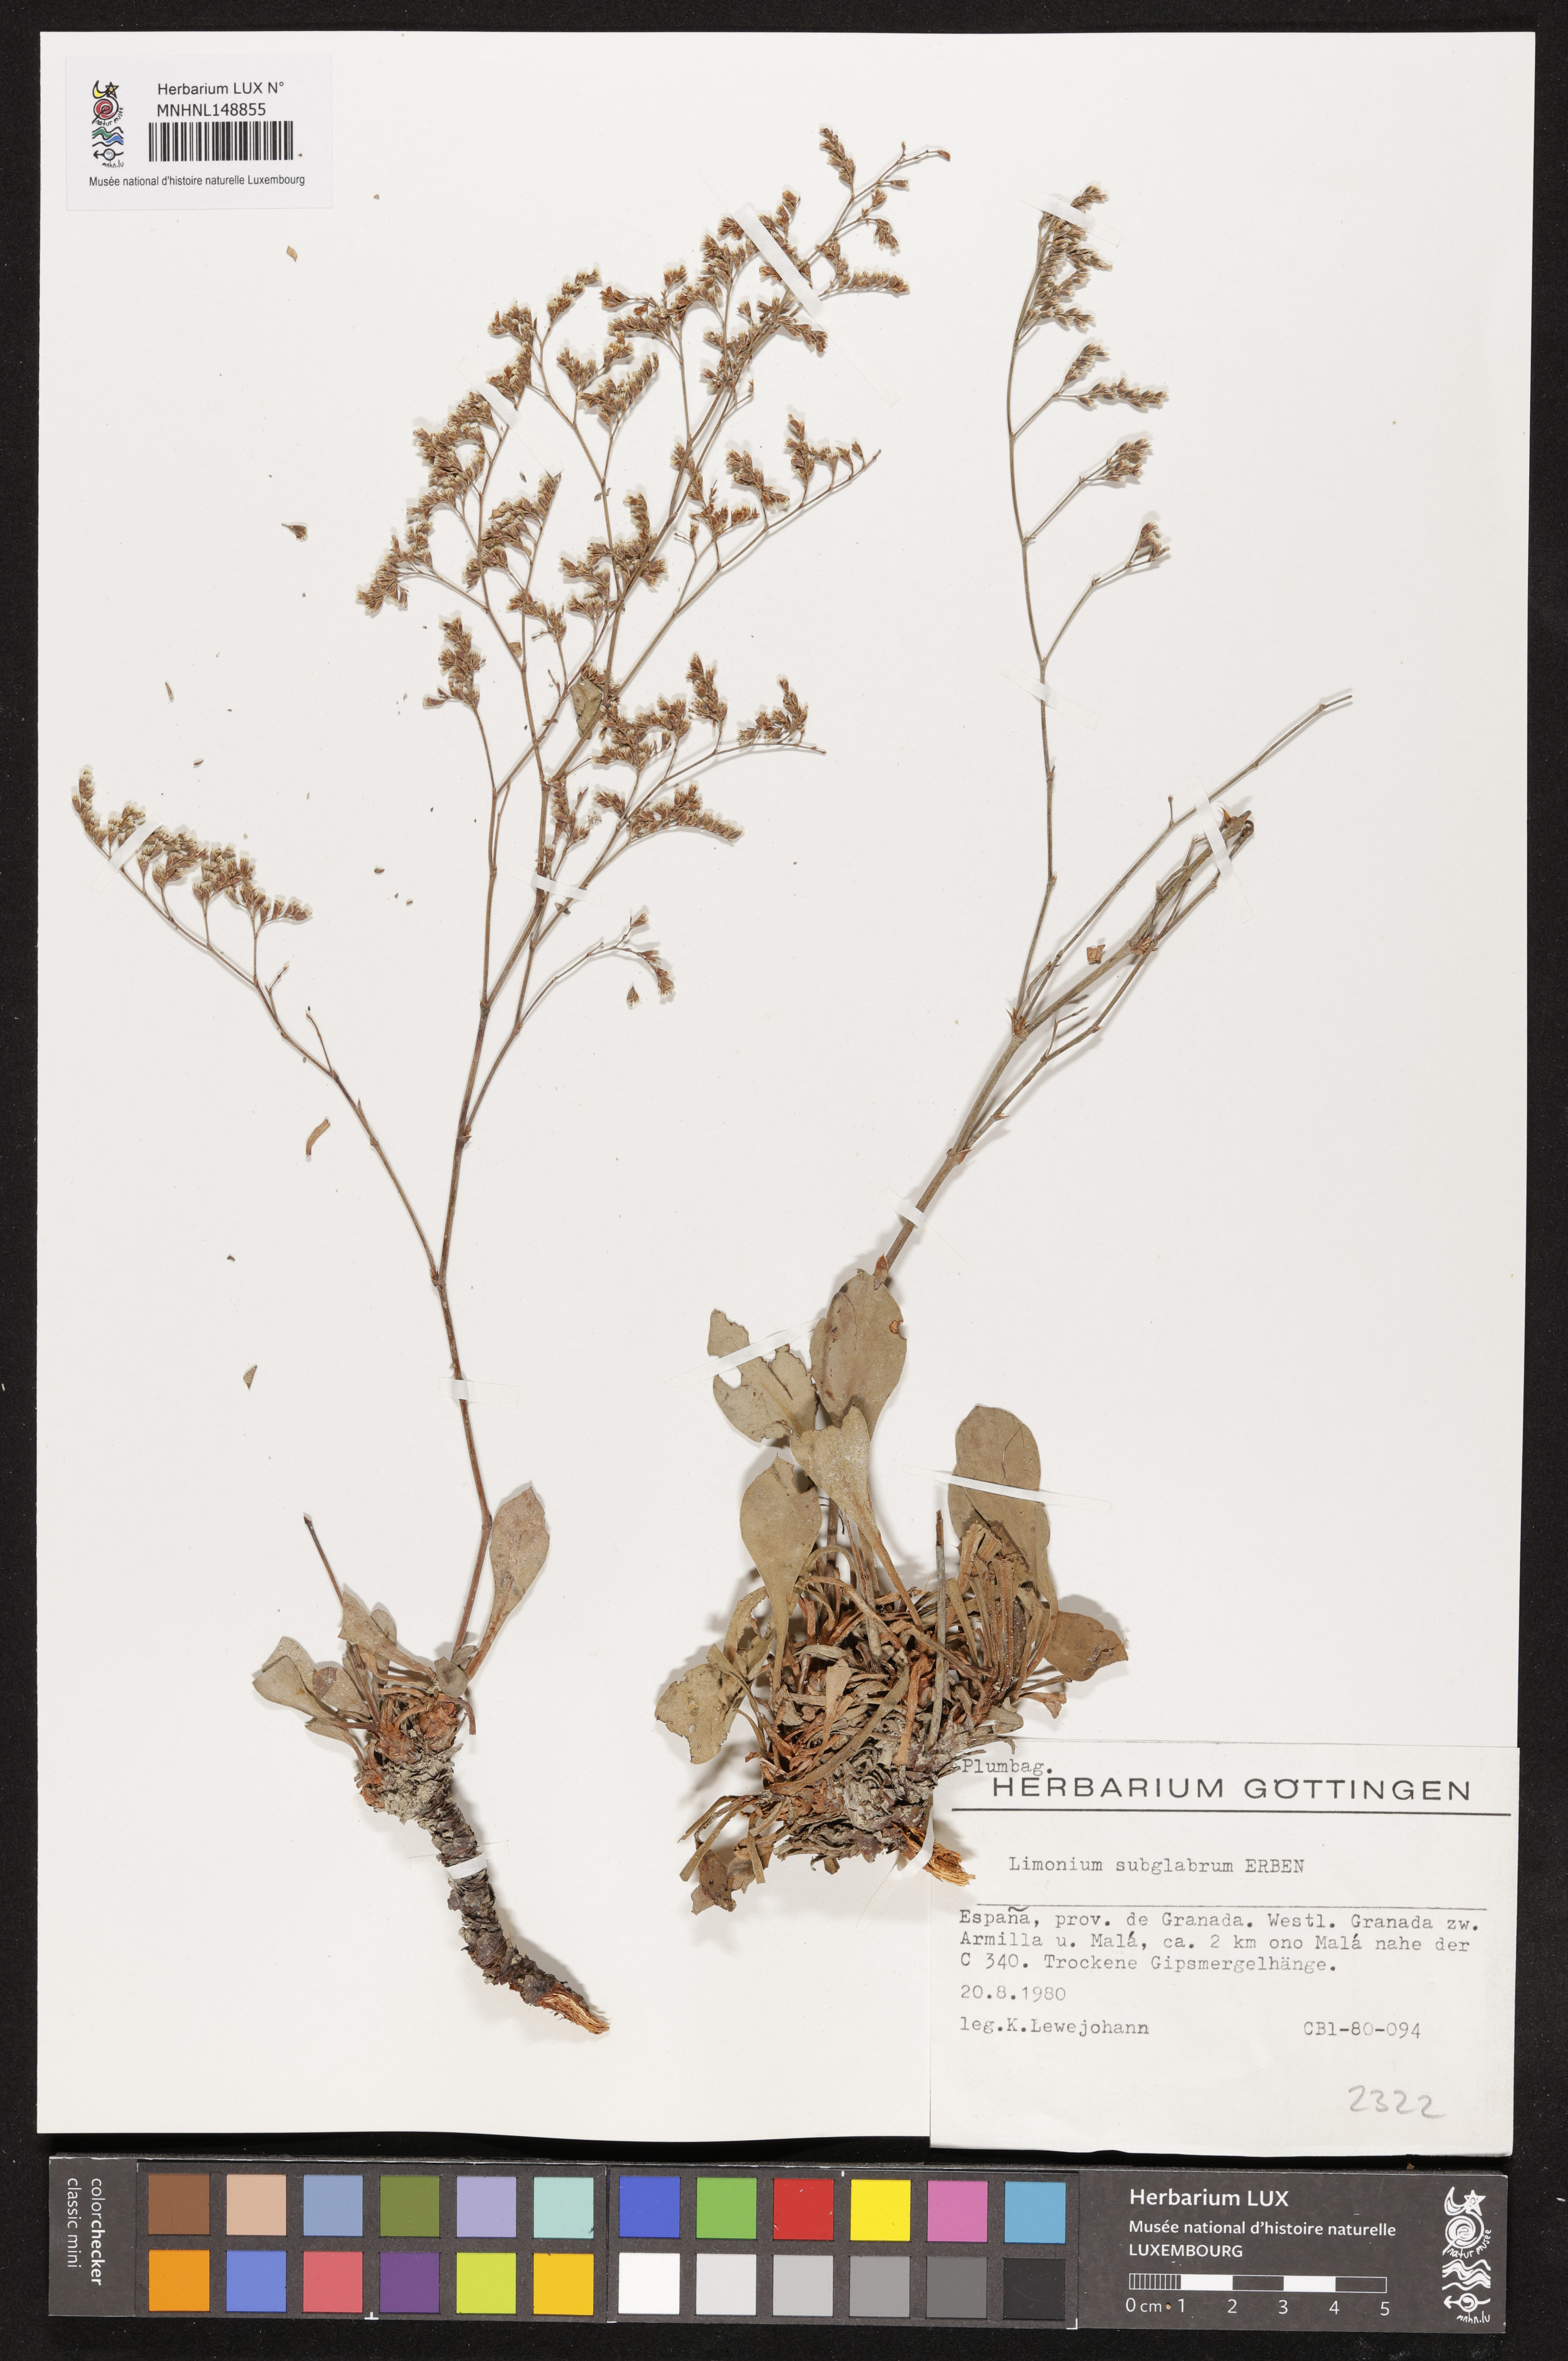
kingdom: Plantae
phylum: Tracheophyta
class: Magnoliopsida
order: Caryophyllales
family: Plumbaginaceae
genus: Limonium
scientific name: Limonium subglabrum
